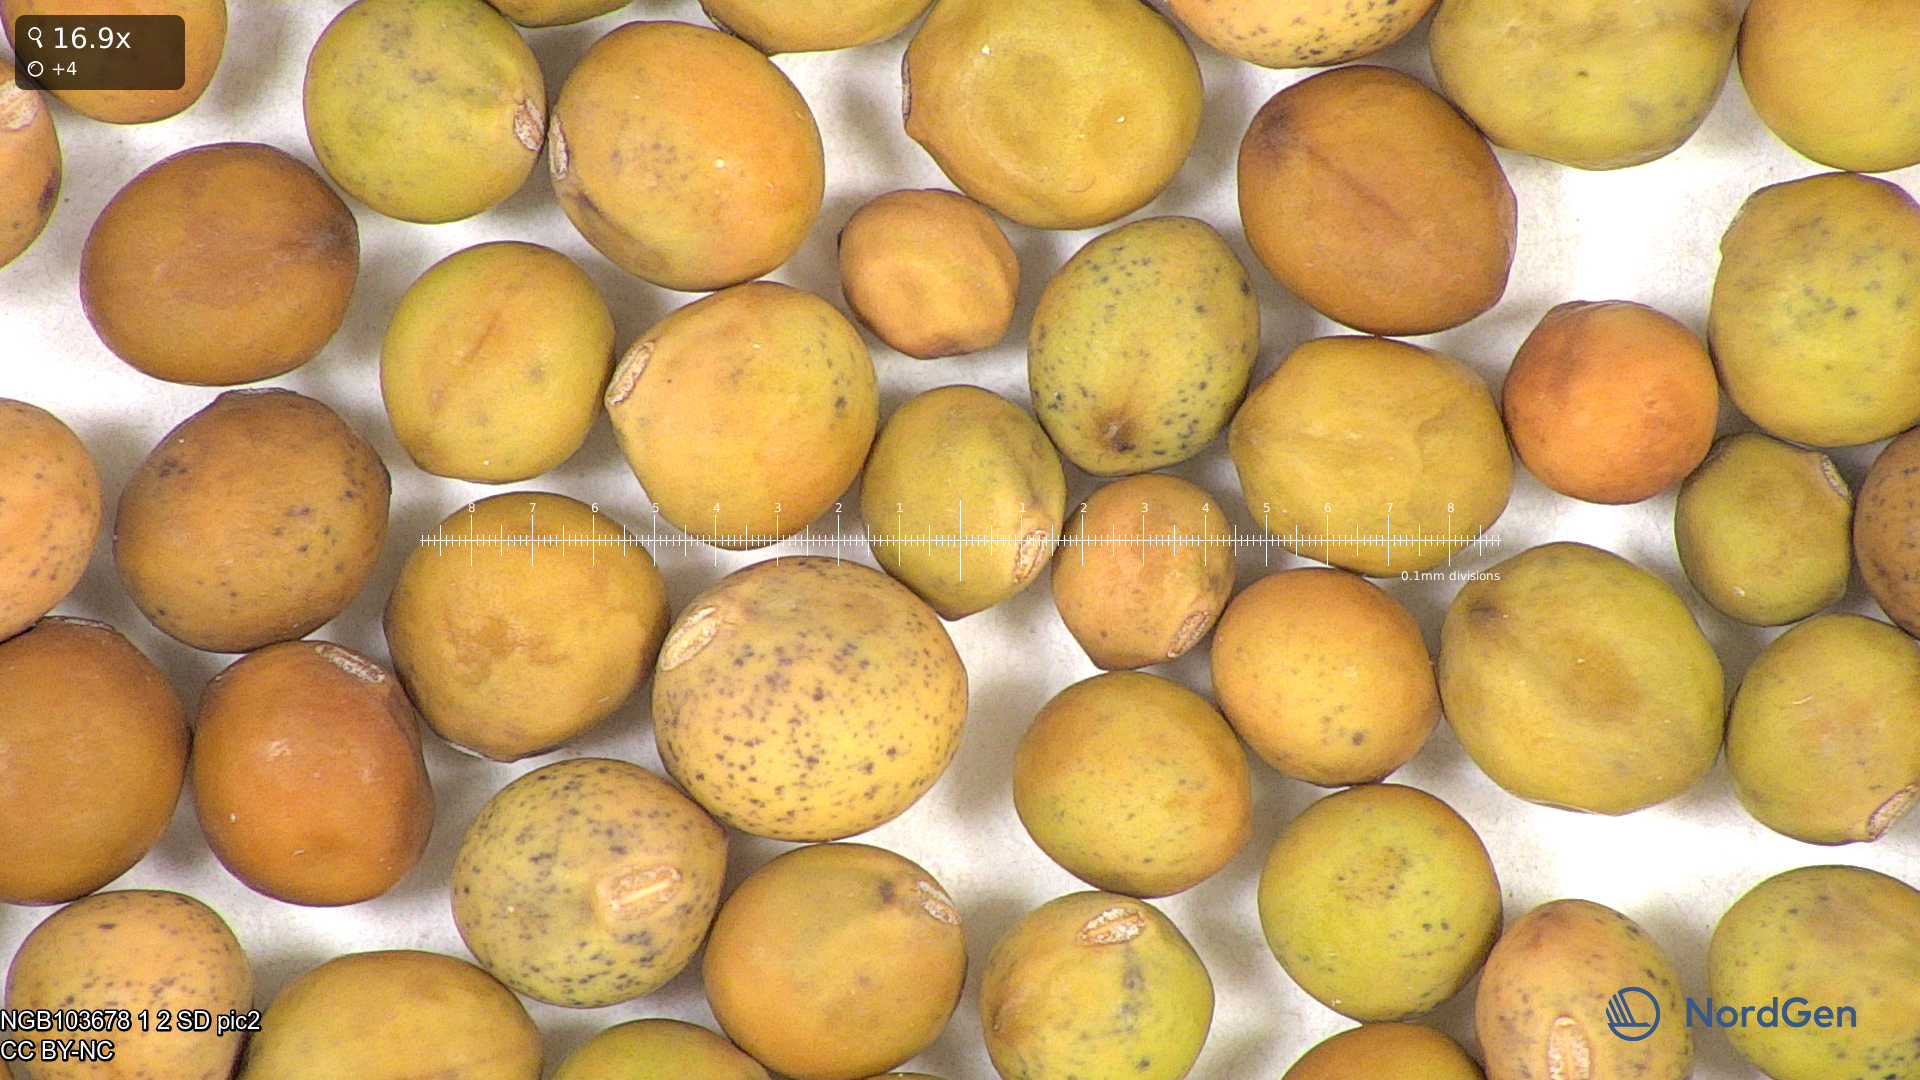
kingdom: Plantae
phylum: Tracheophyta
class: Magnoliopsida
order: Fabales
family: Fabaceae
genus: Lathyrus
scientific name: Lathyrus oleraceus
